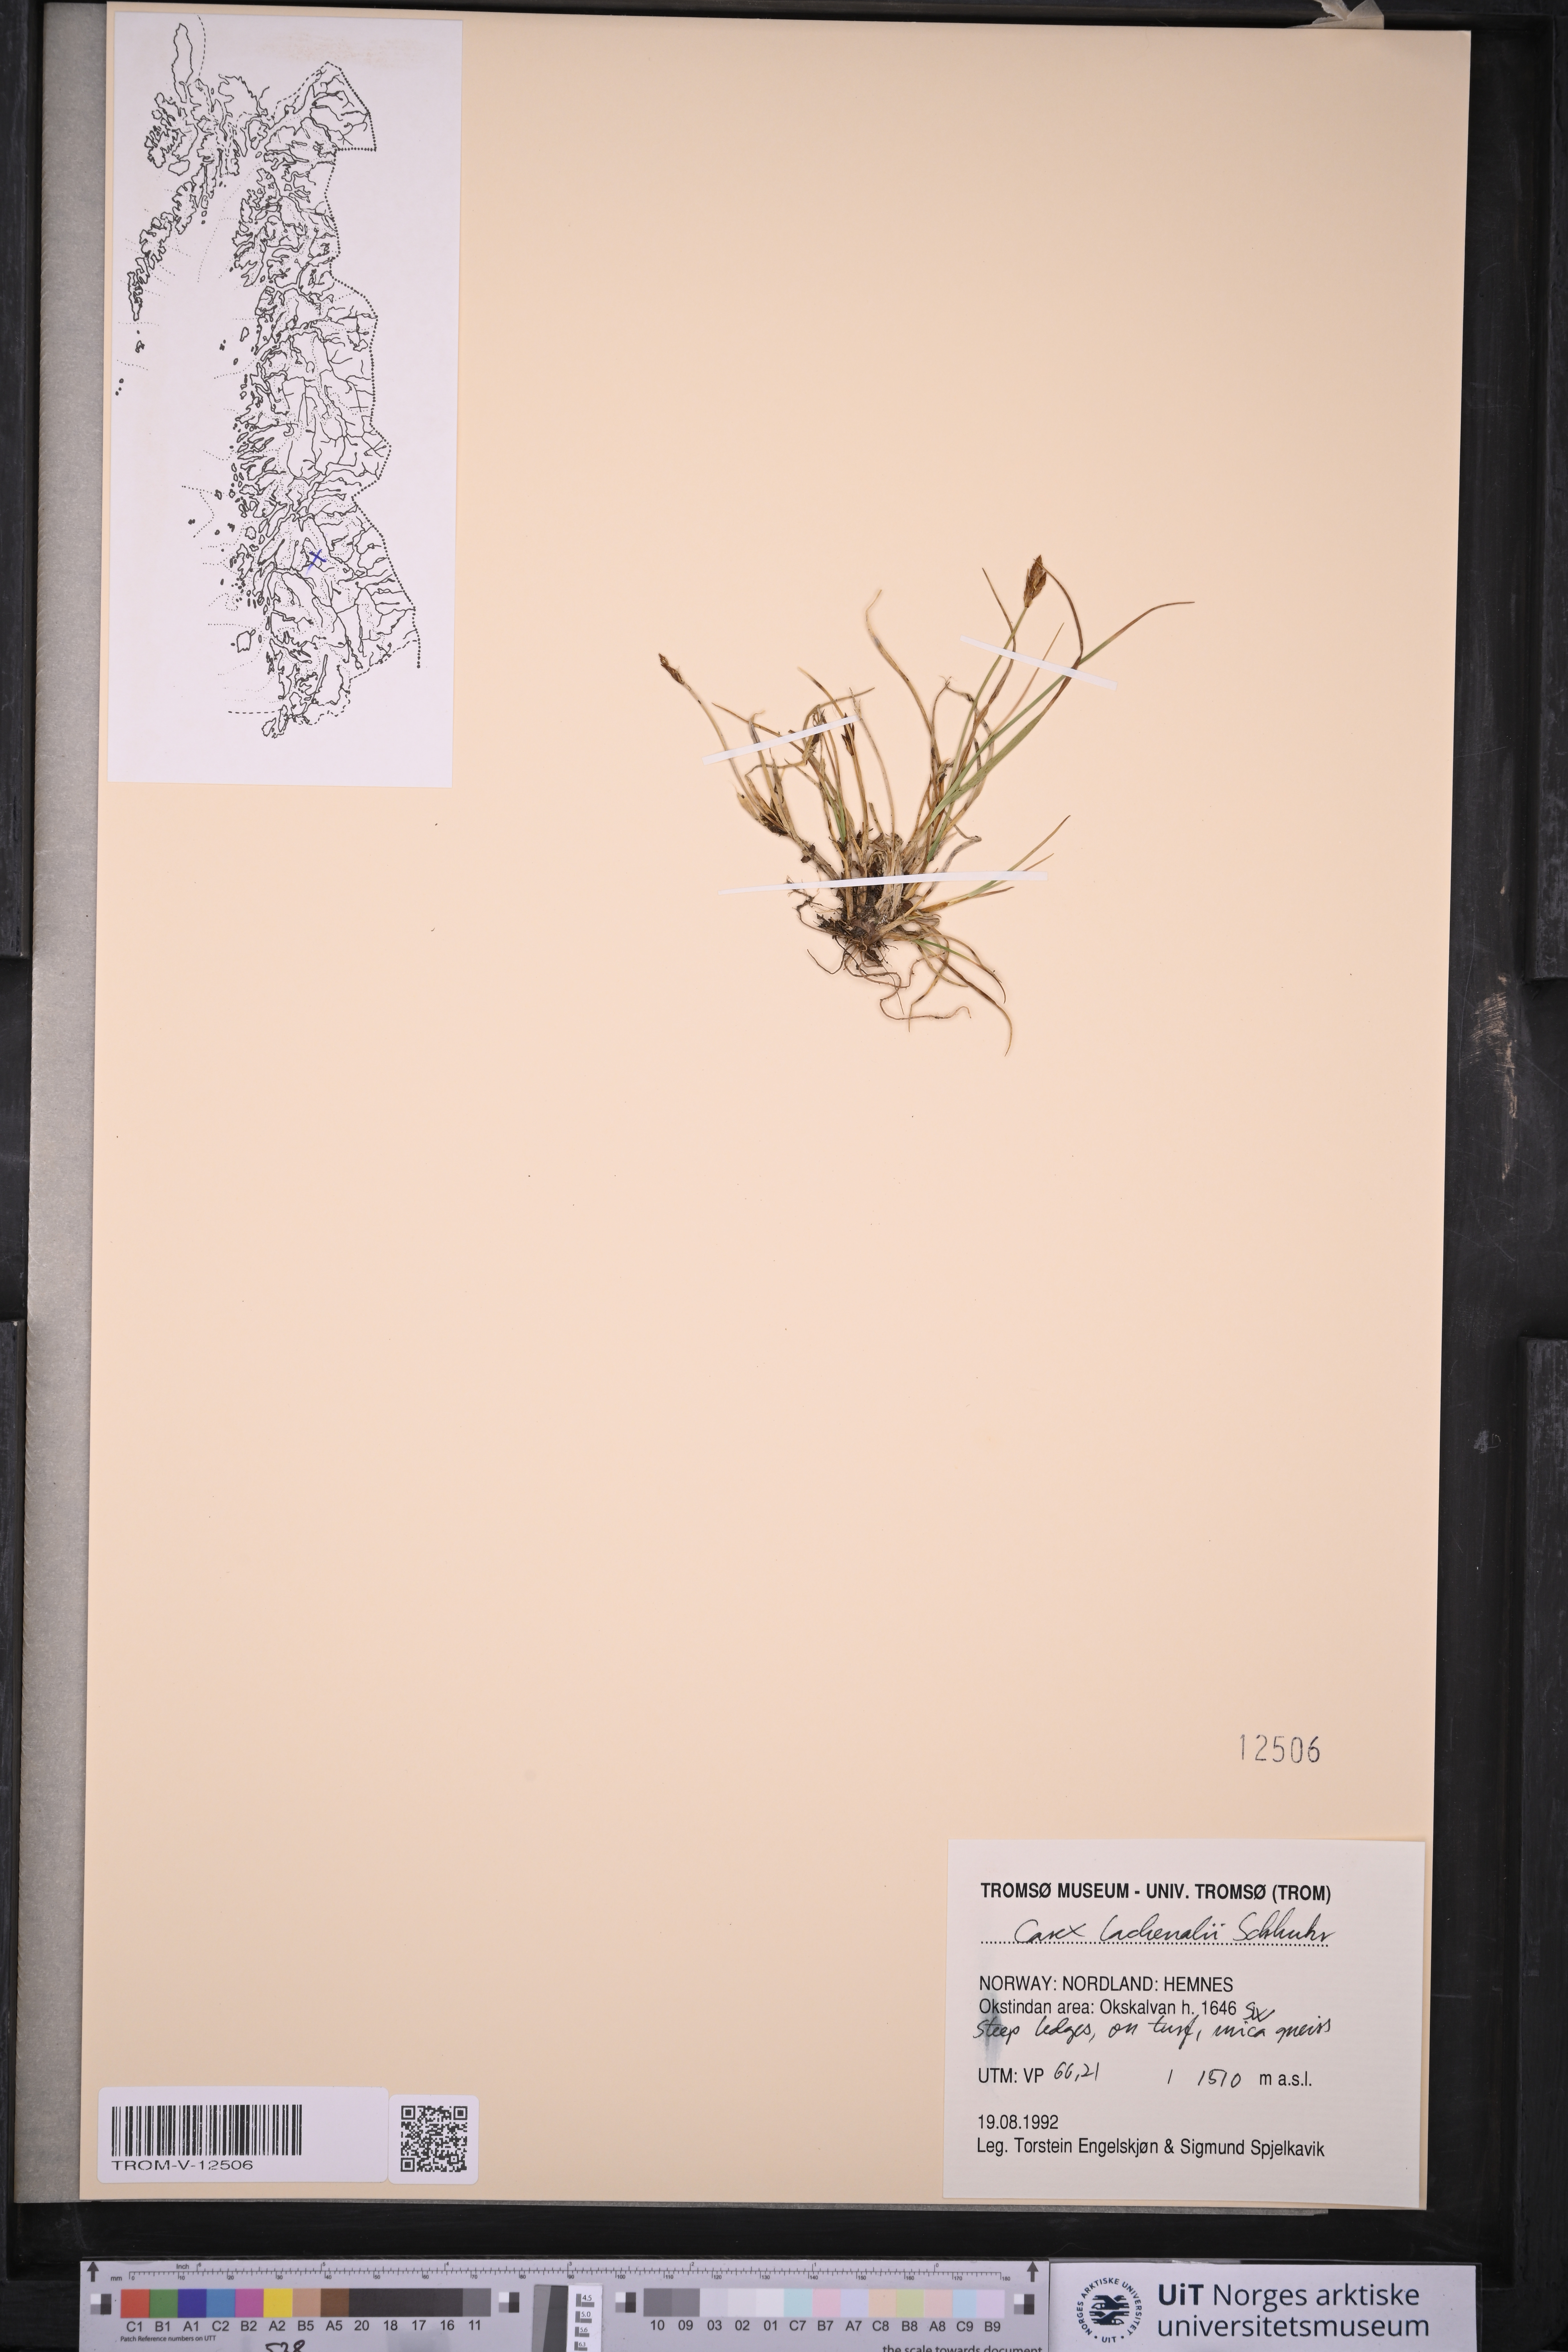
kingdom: Plantae
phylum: Tracheophyta
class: Liliopsida
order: Poales
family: Cyperaceae
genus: Carex
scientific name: Carex lachenalii
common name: Hare's-foot sedge
